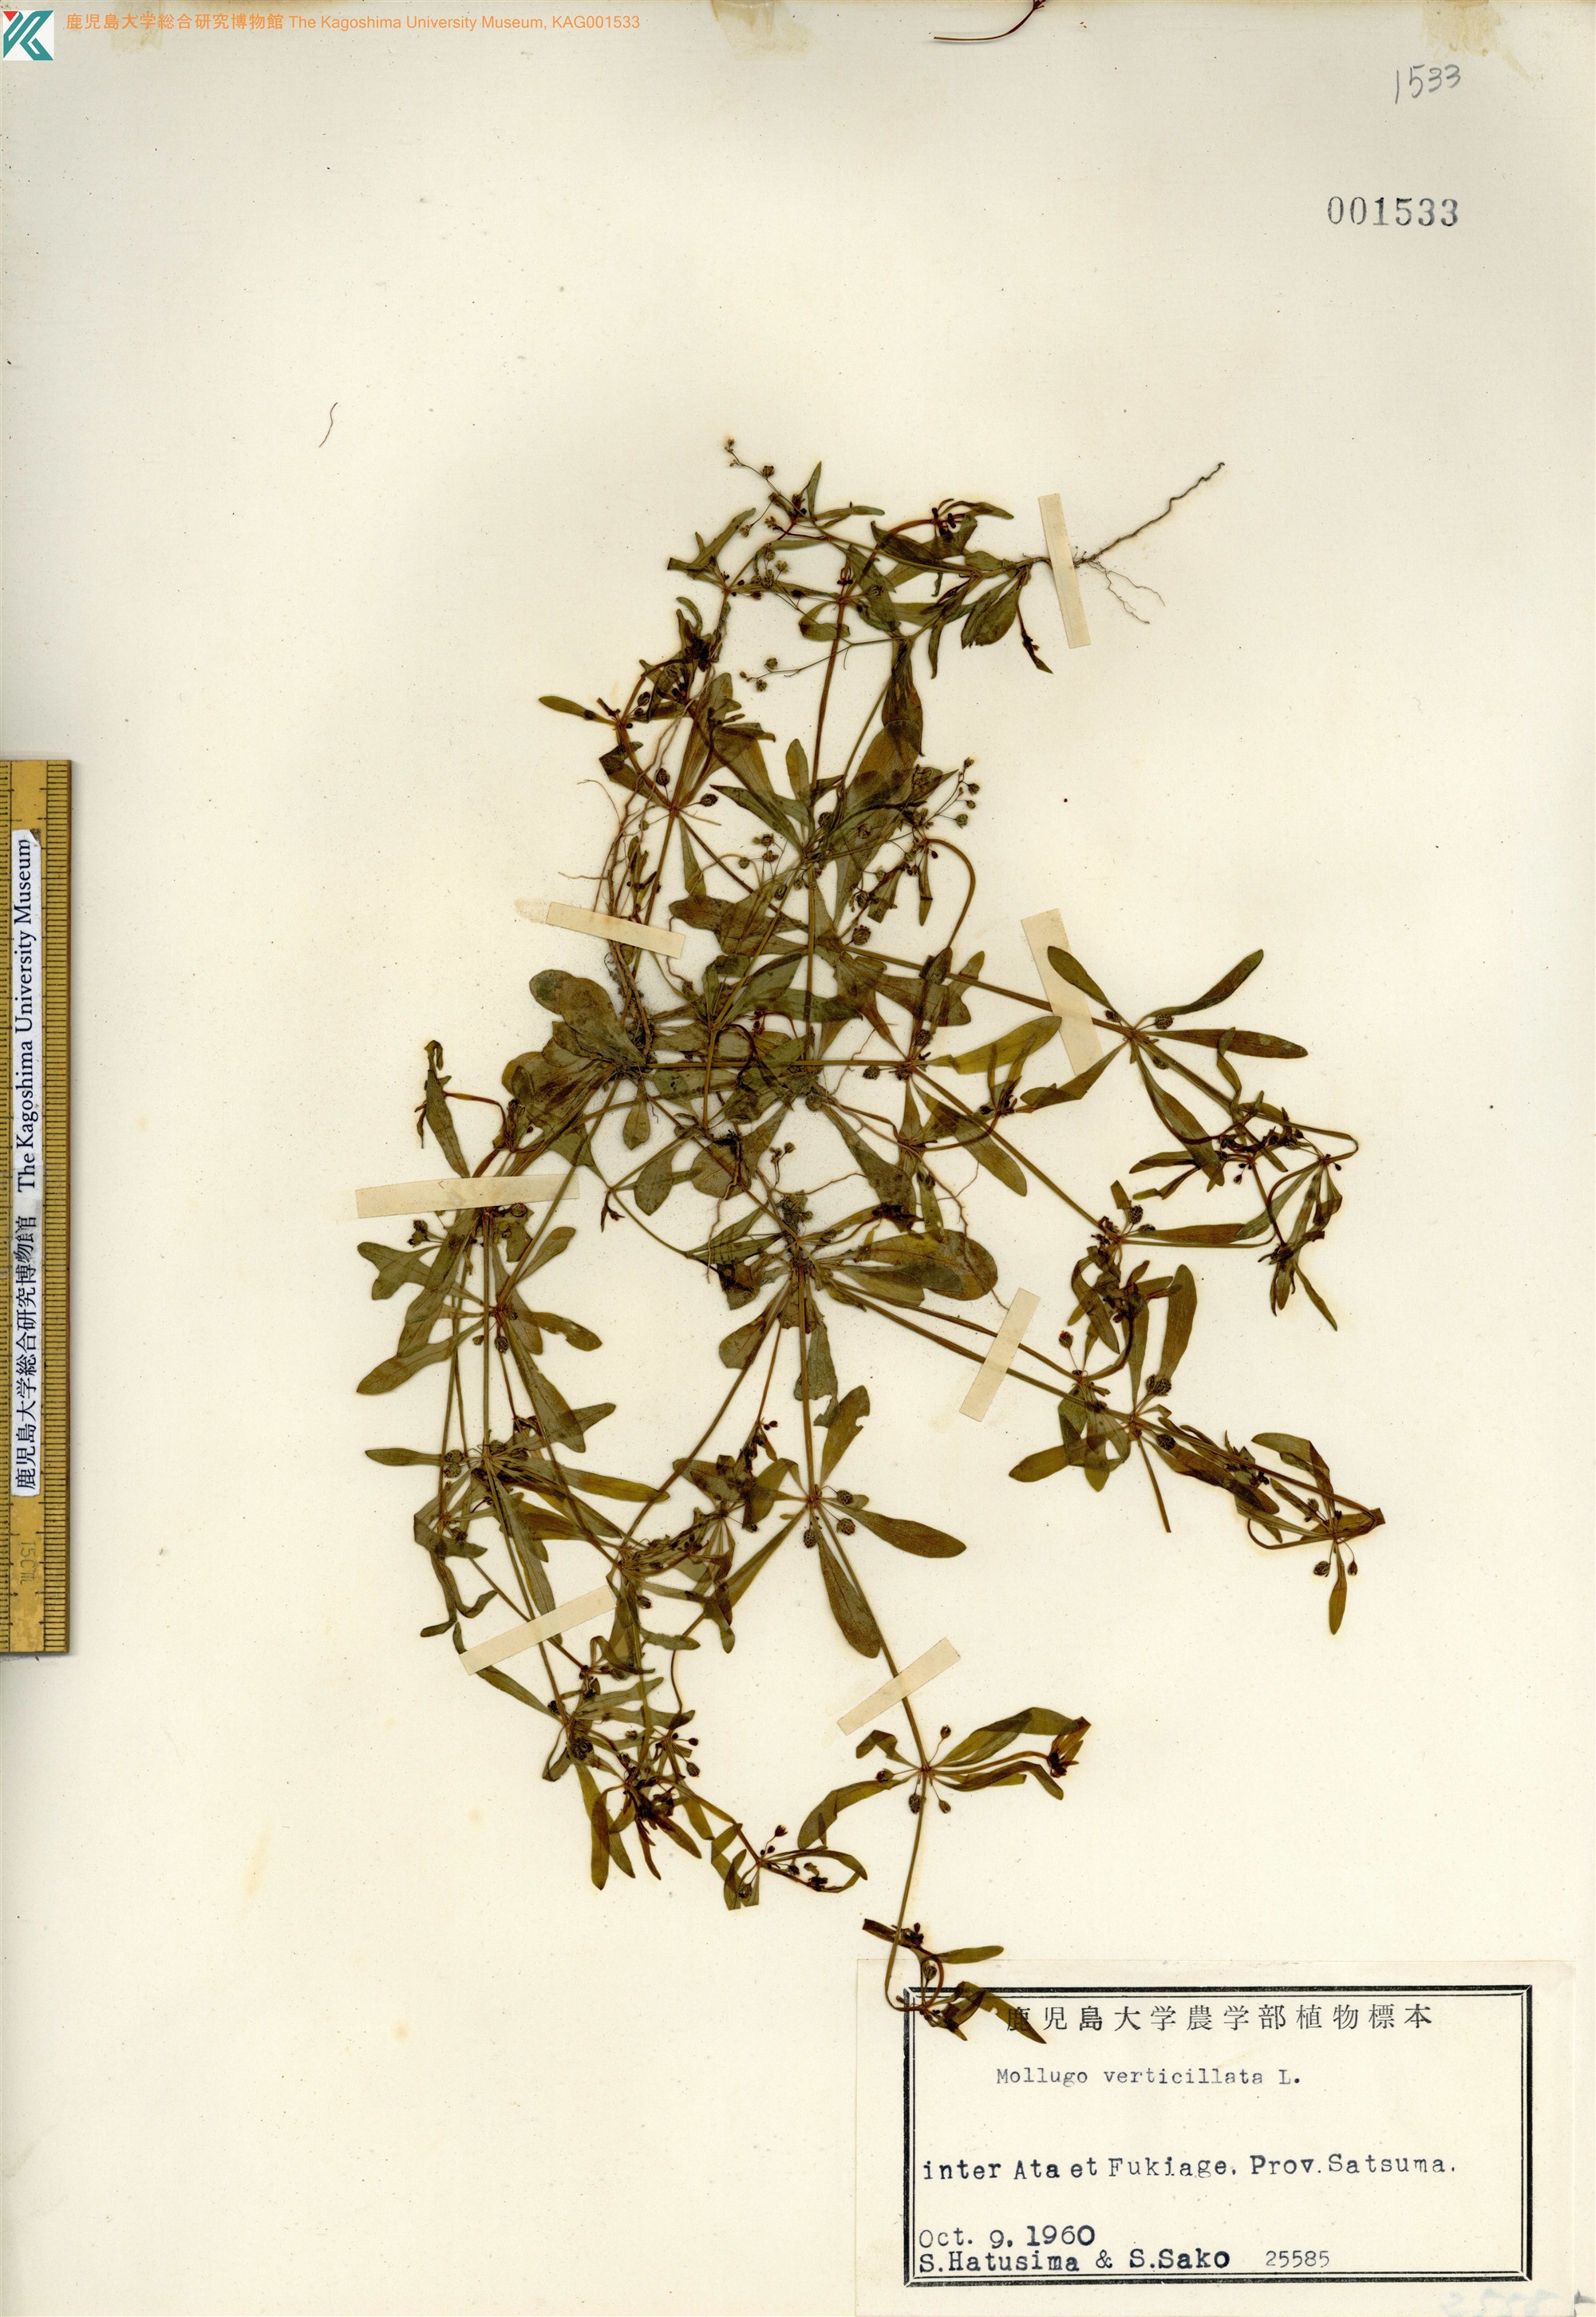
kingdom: Plantae
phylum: Tracheophyta
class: Magnoliopsida
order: Caryophyllales
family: Molluginaceae
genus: Mollugo
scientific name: Mollugo verticillata
